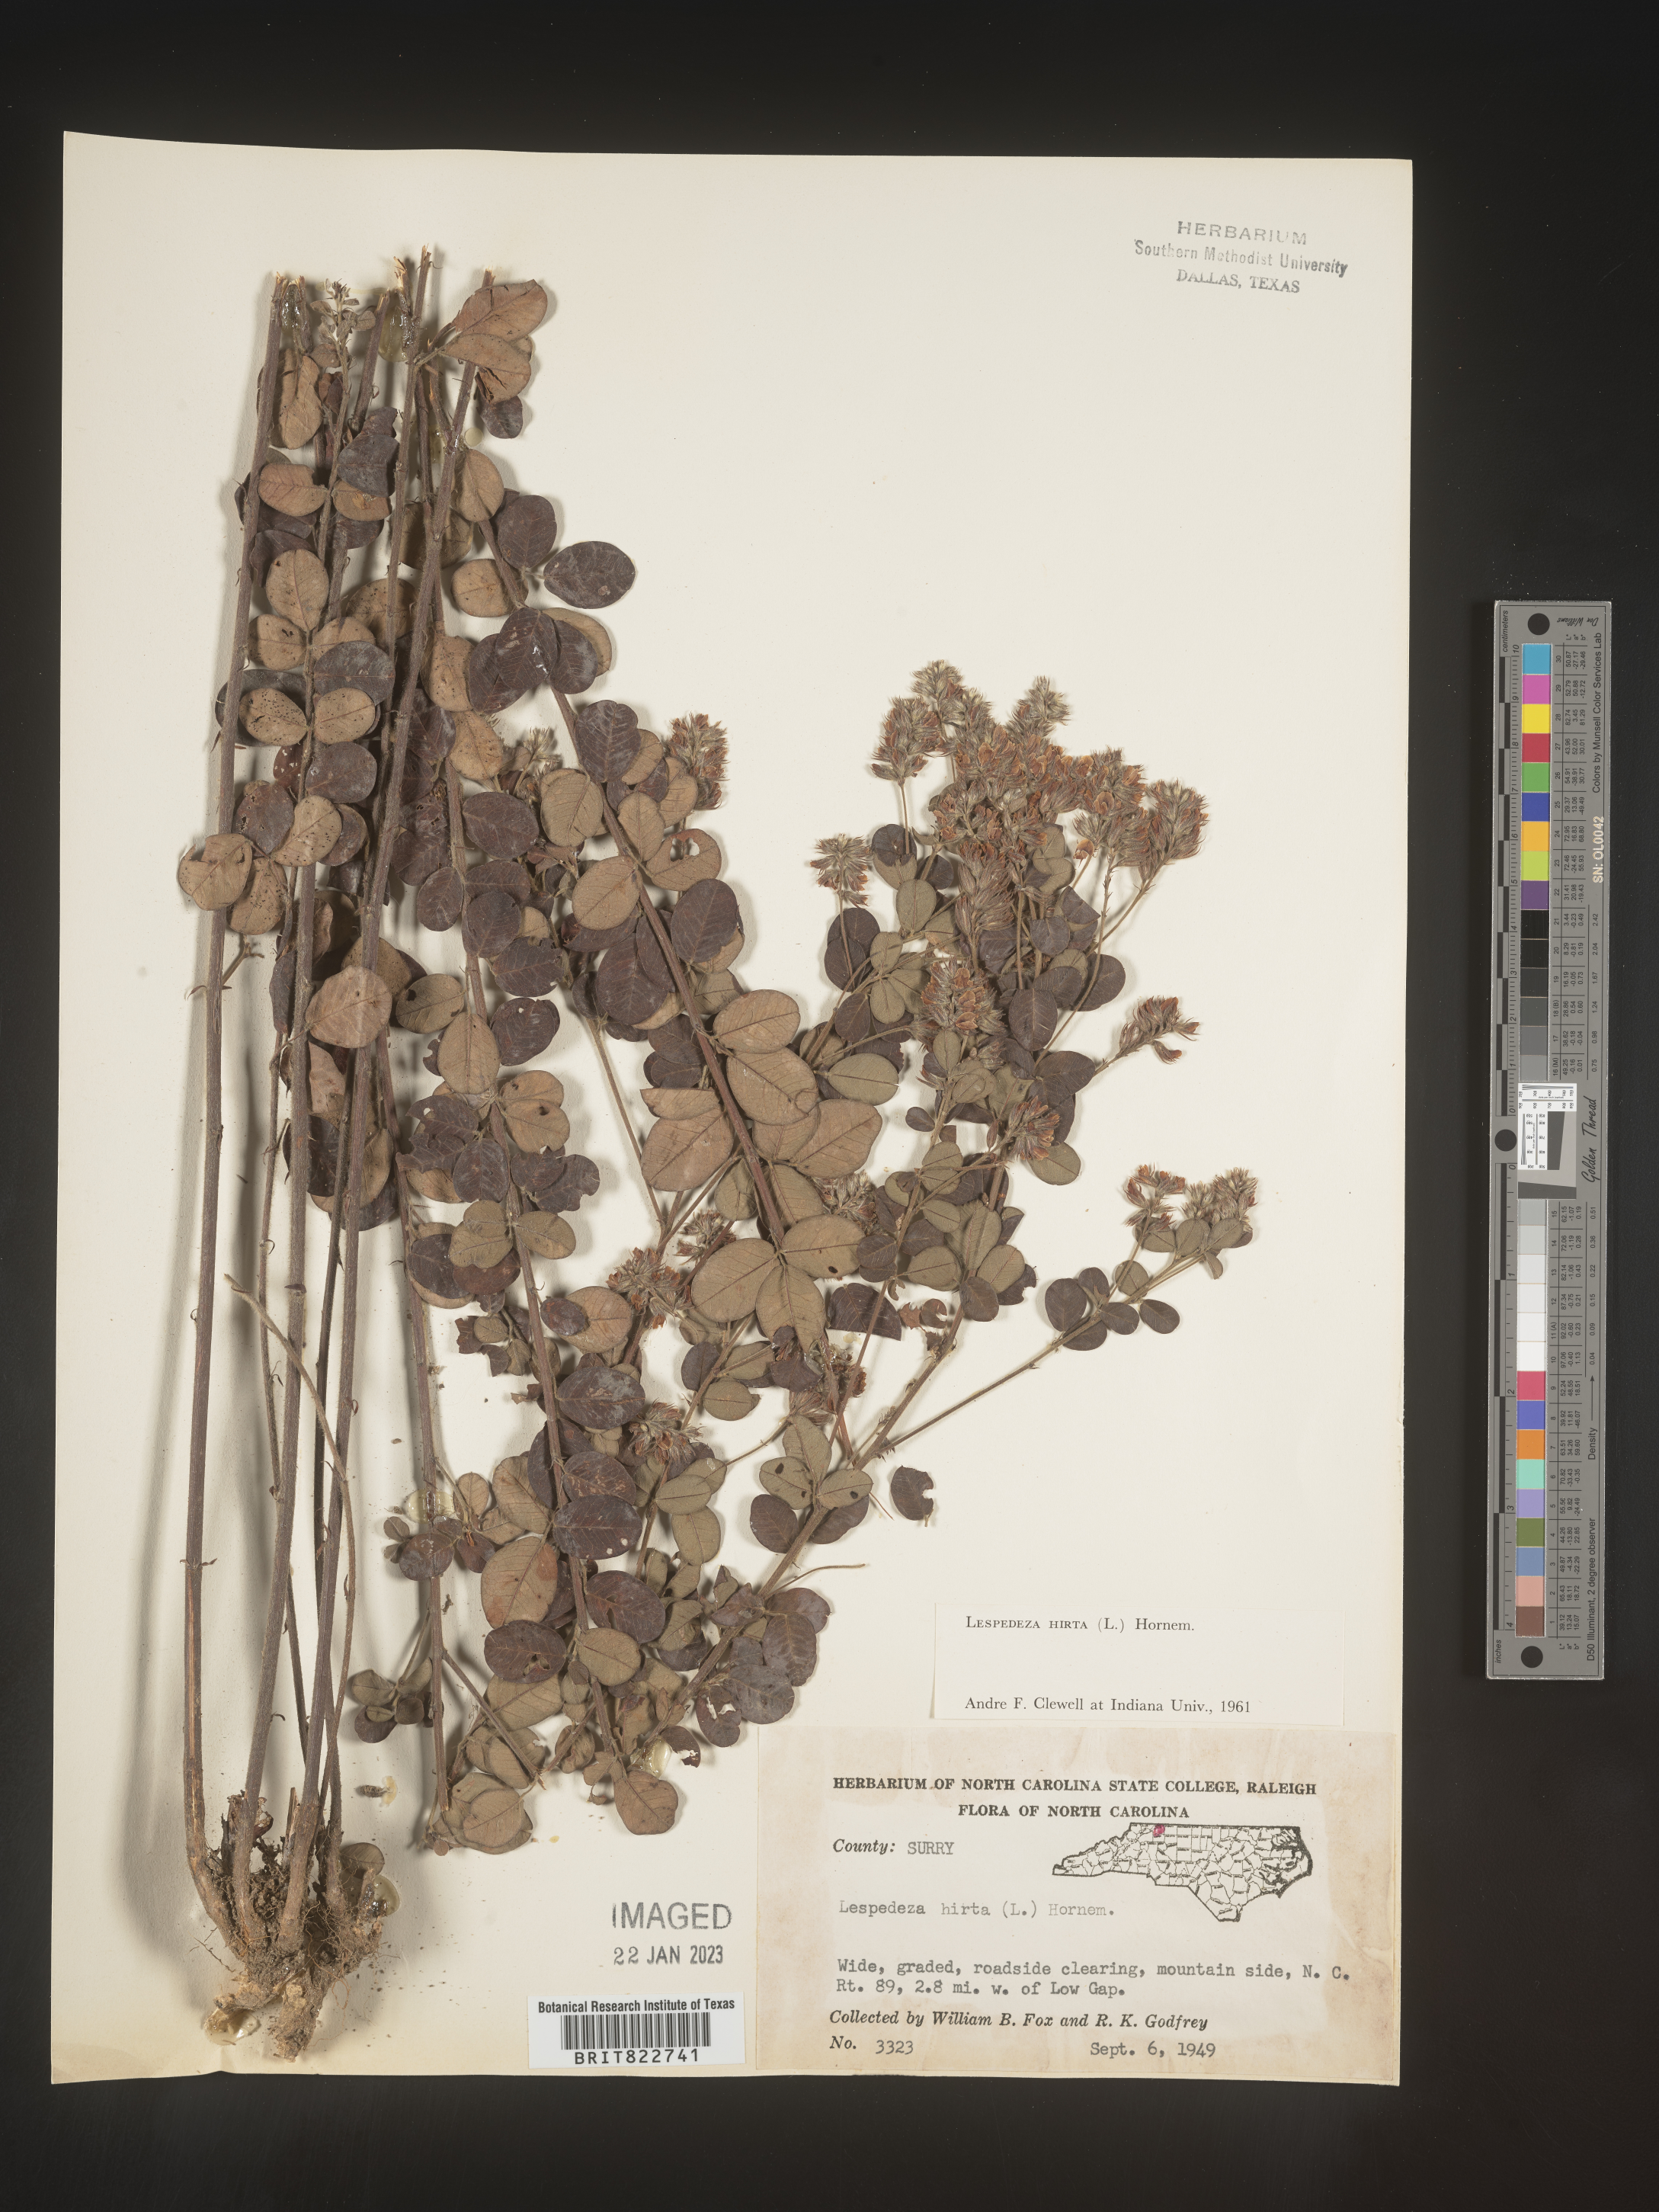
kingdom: Plantae
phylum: Tracheophyta
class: Magnoliopsida
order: Fabales
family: Fabaceae
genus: Lespedeza
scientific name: Lespedeza hirta
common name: Hairy lespedeza
